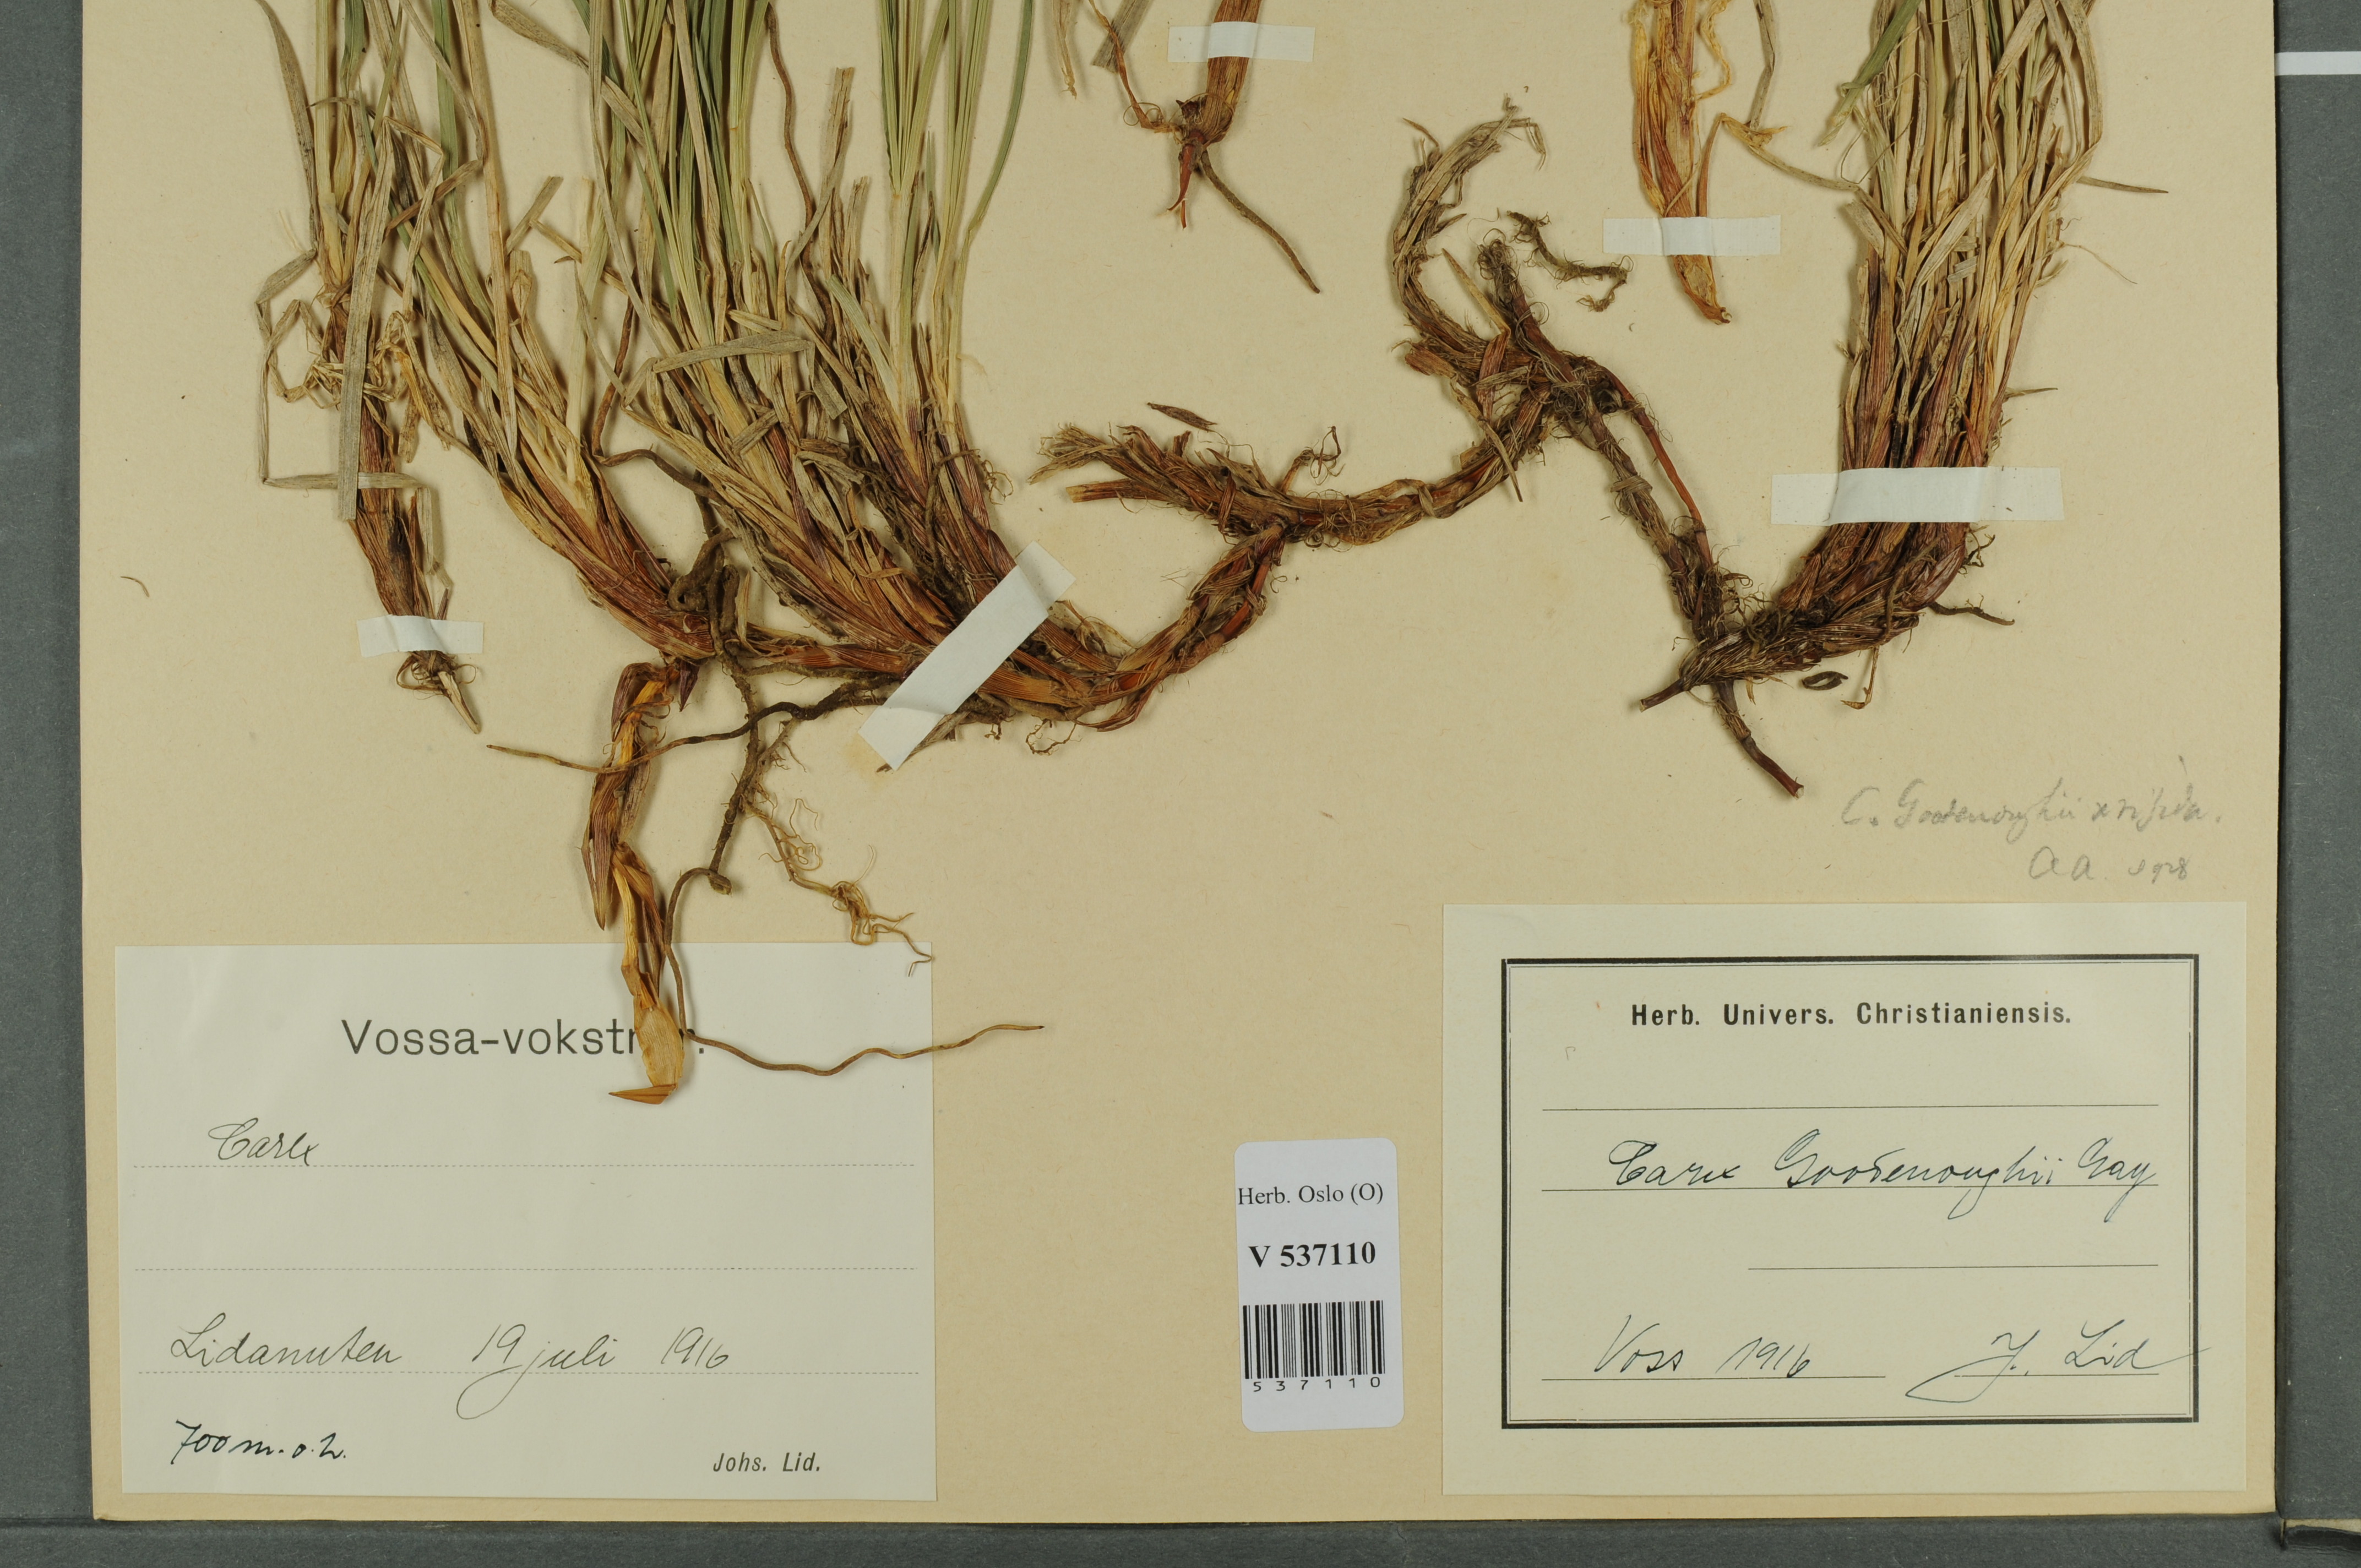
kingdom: Plantae
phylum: Tracheophyta
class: Liliopsida
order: Poales
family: Cyperaceae
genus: Carex
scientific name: Carex
